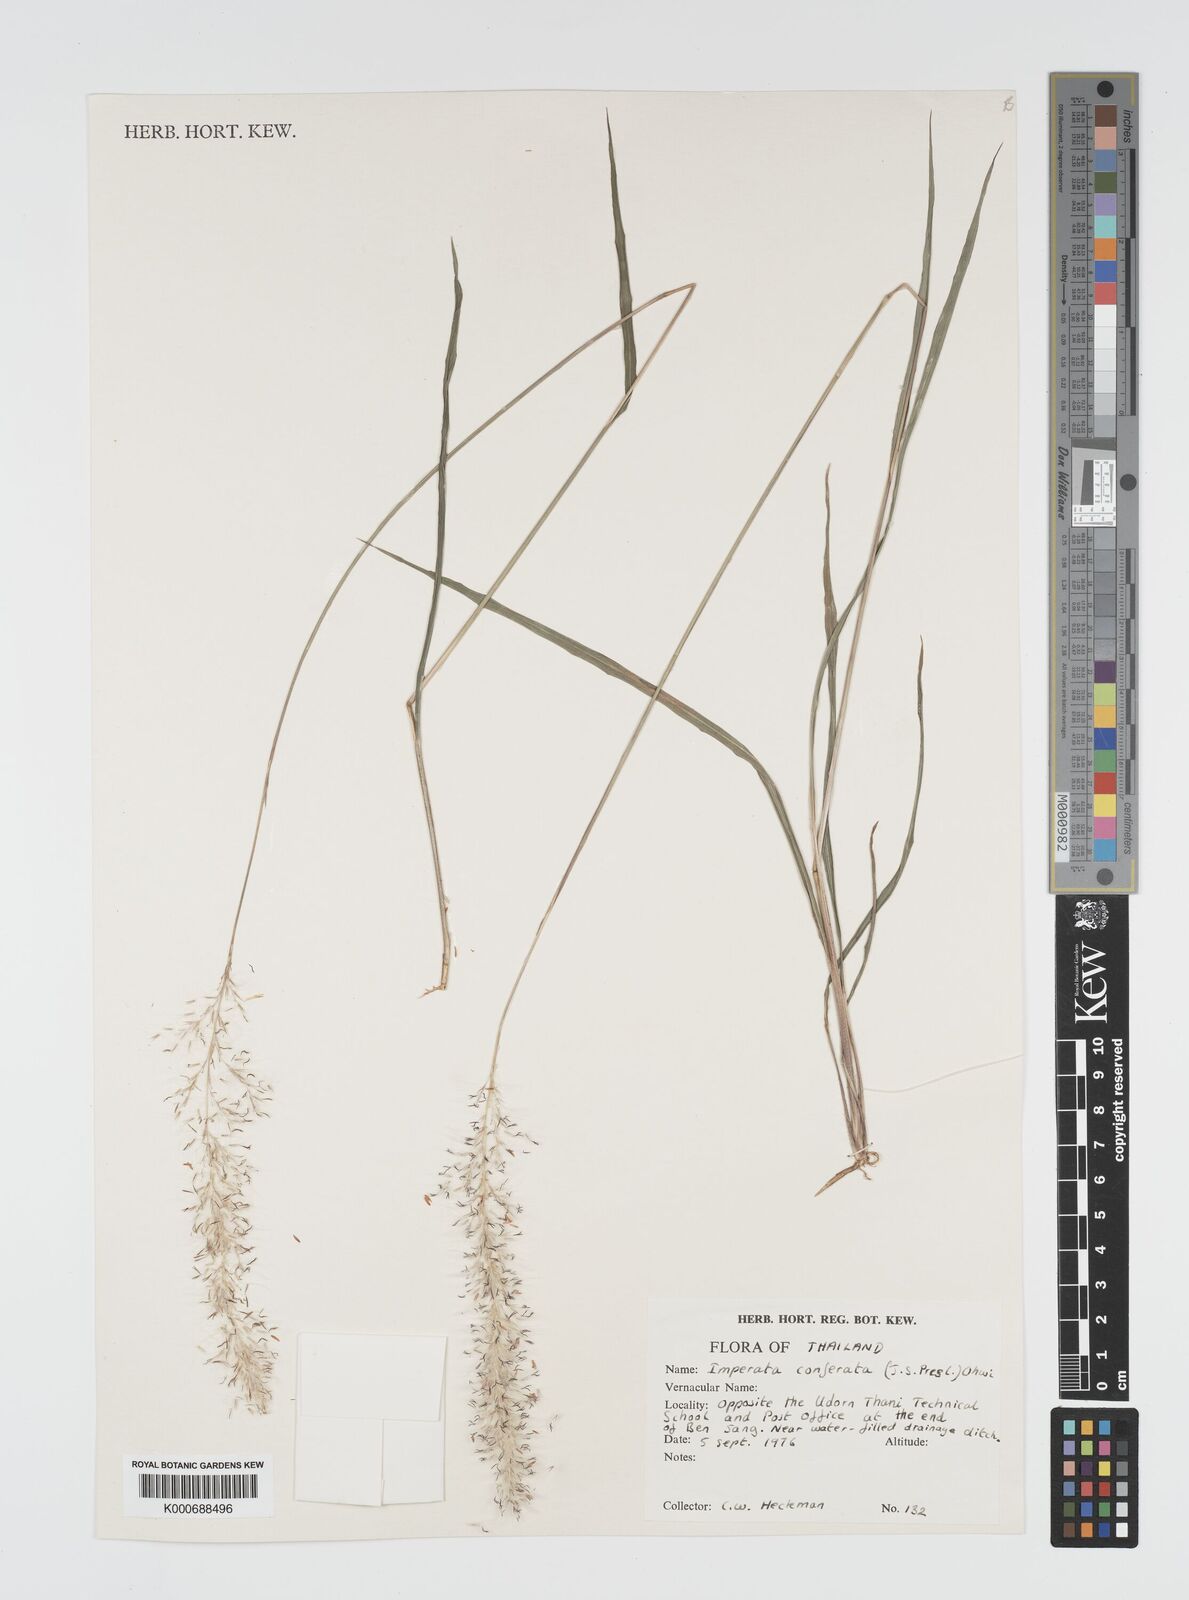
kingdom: Plantae
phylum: Tracheophyta
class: Liliopsida
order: Poales
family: Poaceae
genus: Imperata
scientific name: Imperata conferta
